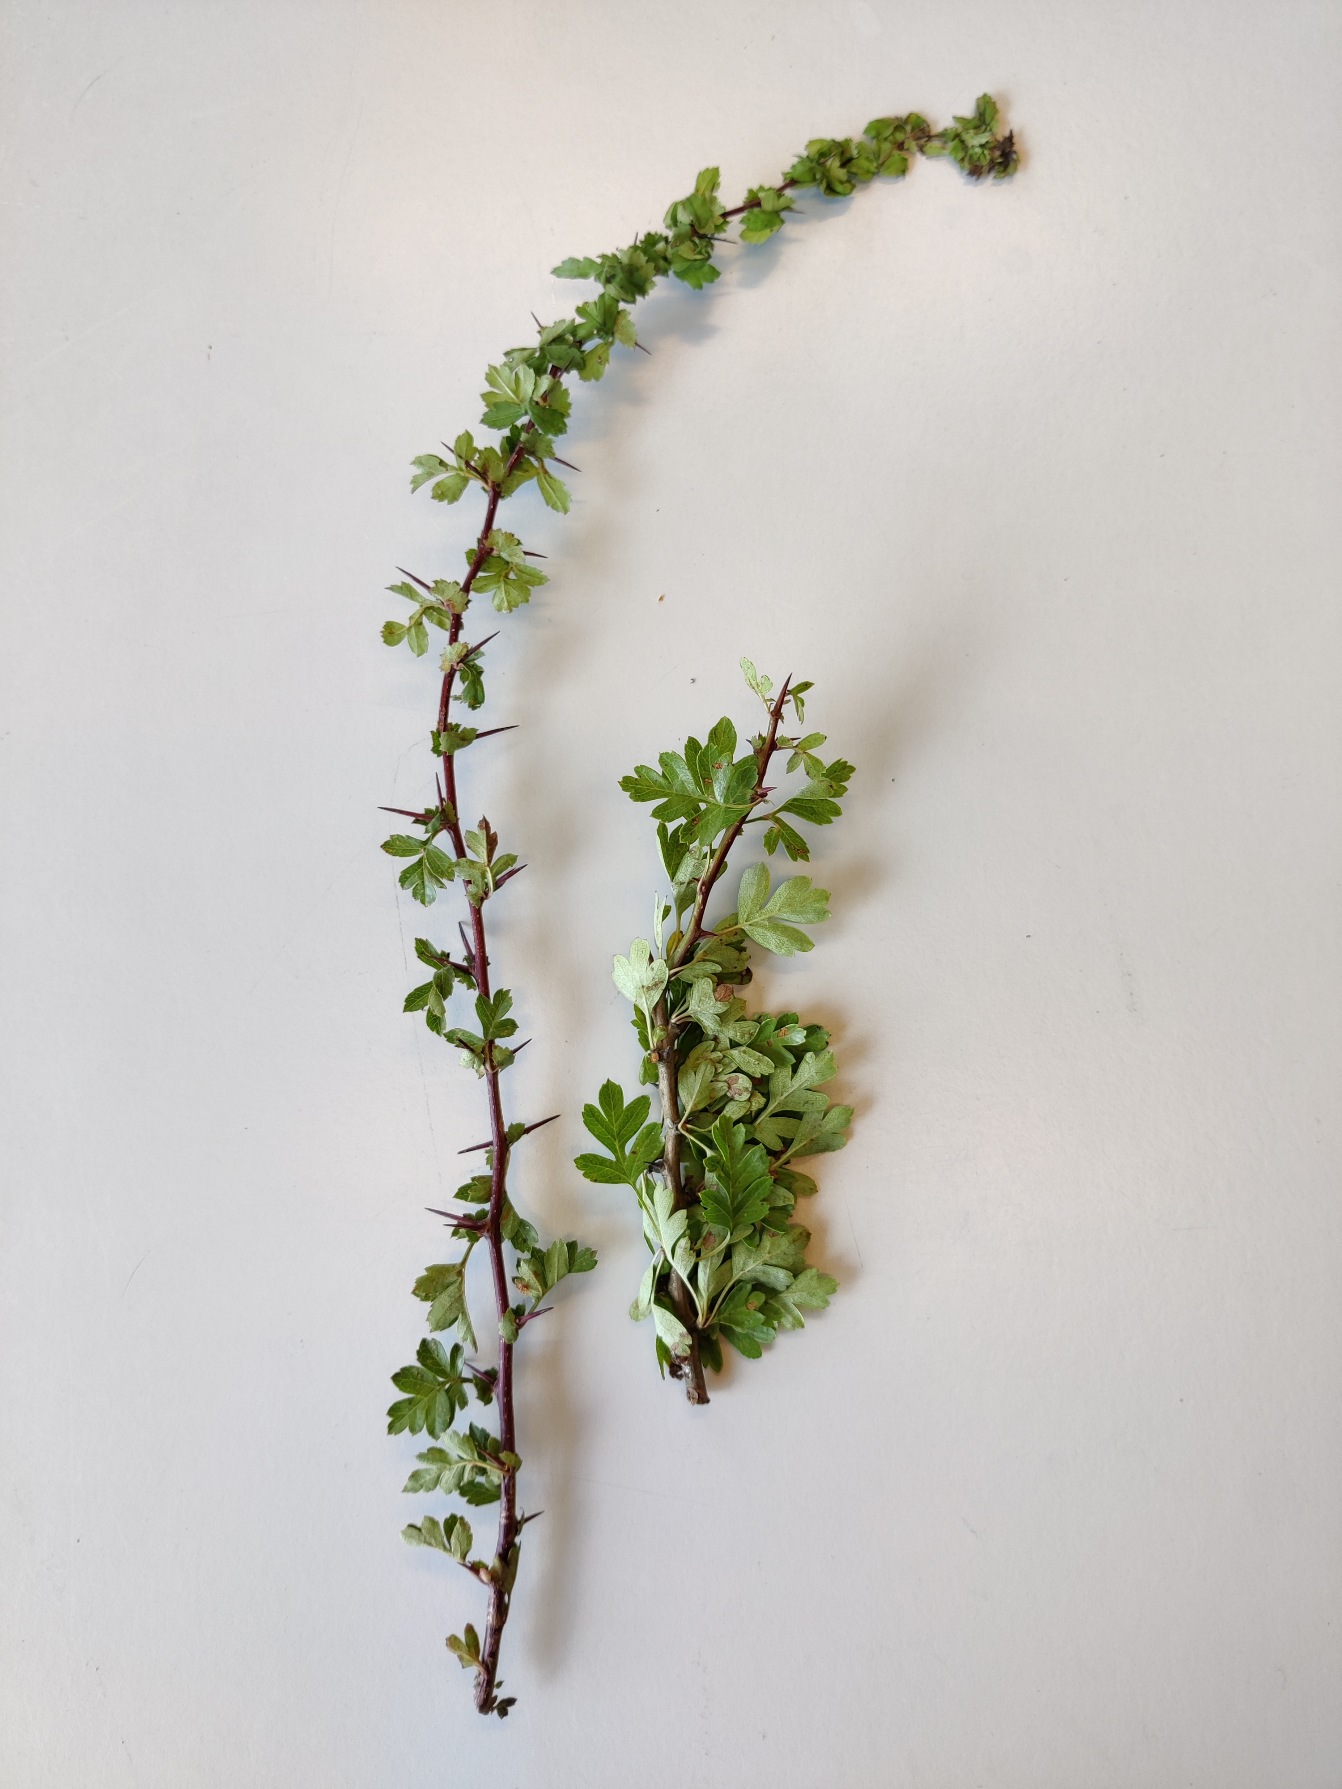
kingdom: Plantae
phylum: Tracheophyta
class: Magnoliopsida
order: Rosales
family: Rosaceae
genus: Crataegus
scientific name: Crataegus monogyna
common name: Engriflet hvidtjørn
